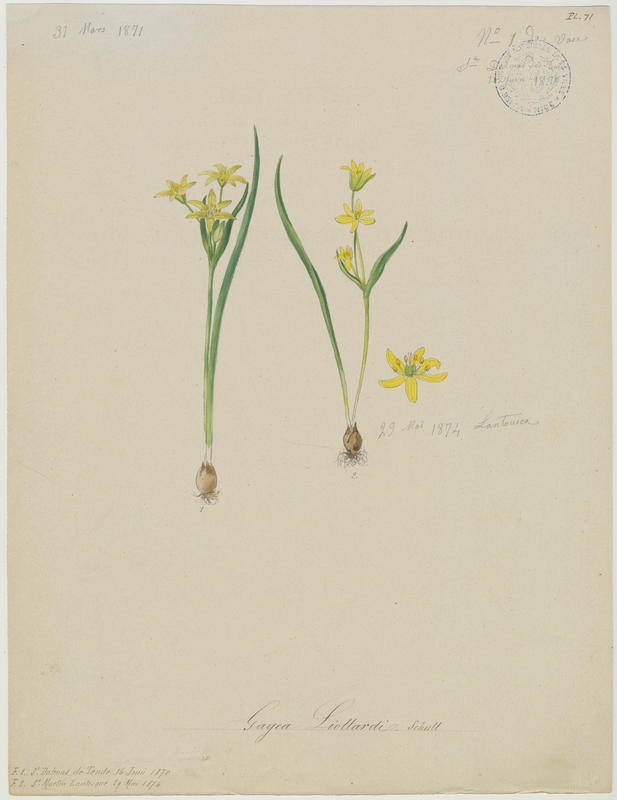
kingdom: Plantae
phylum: Tracheophyta
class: Liliopsida
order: Liliales
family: Liliaceae
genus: Gagea
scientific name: Gagea fragifera
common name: Lily
